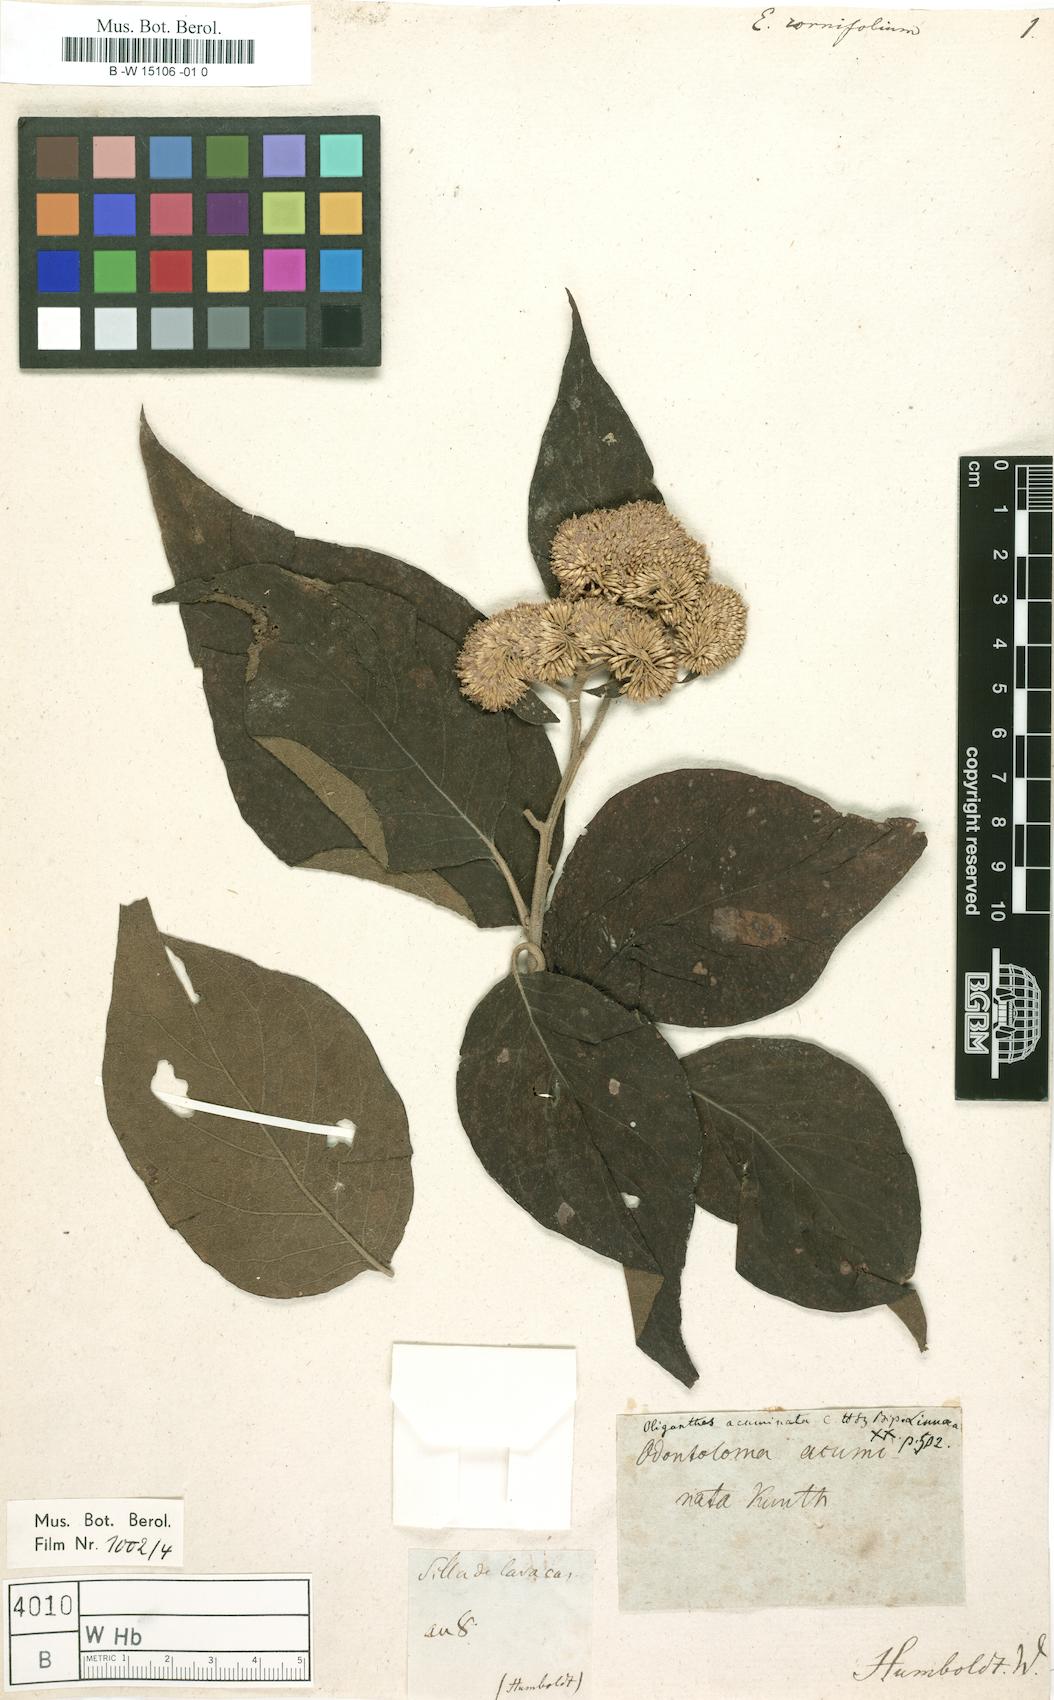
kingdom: Plantae
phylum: Tracheophyta
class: Magnoliopsida
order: Asterales
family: Asteraceae
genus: Piptocoma
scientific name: Piptocoma acuminata
